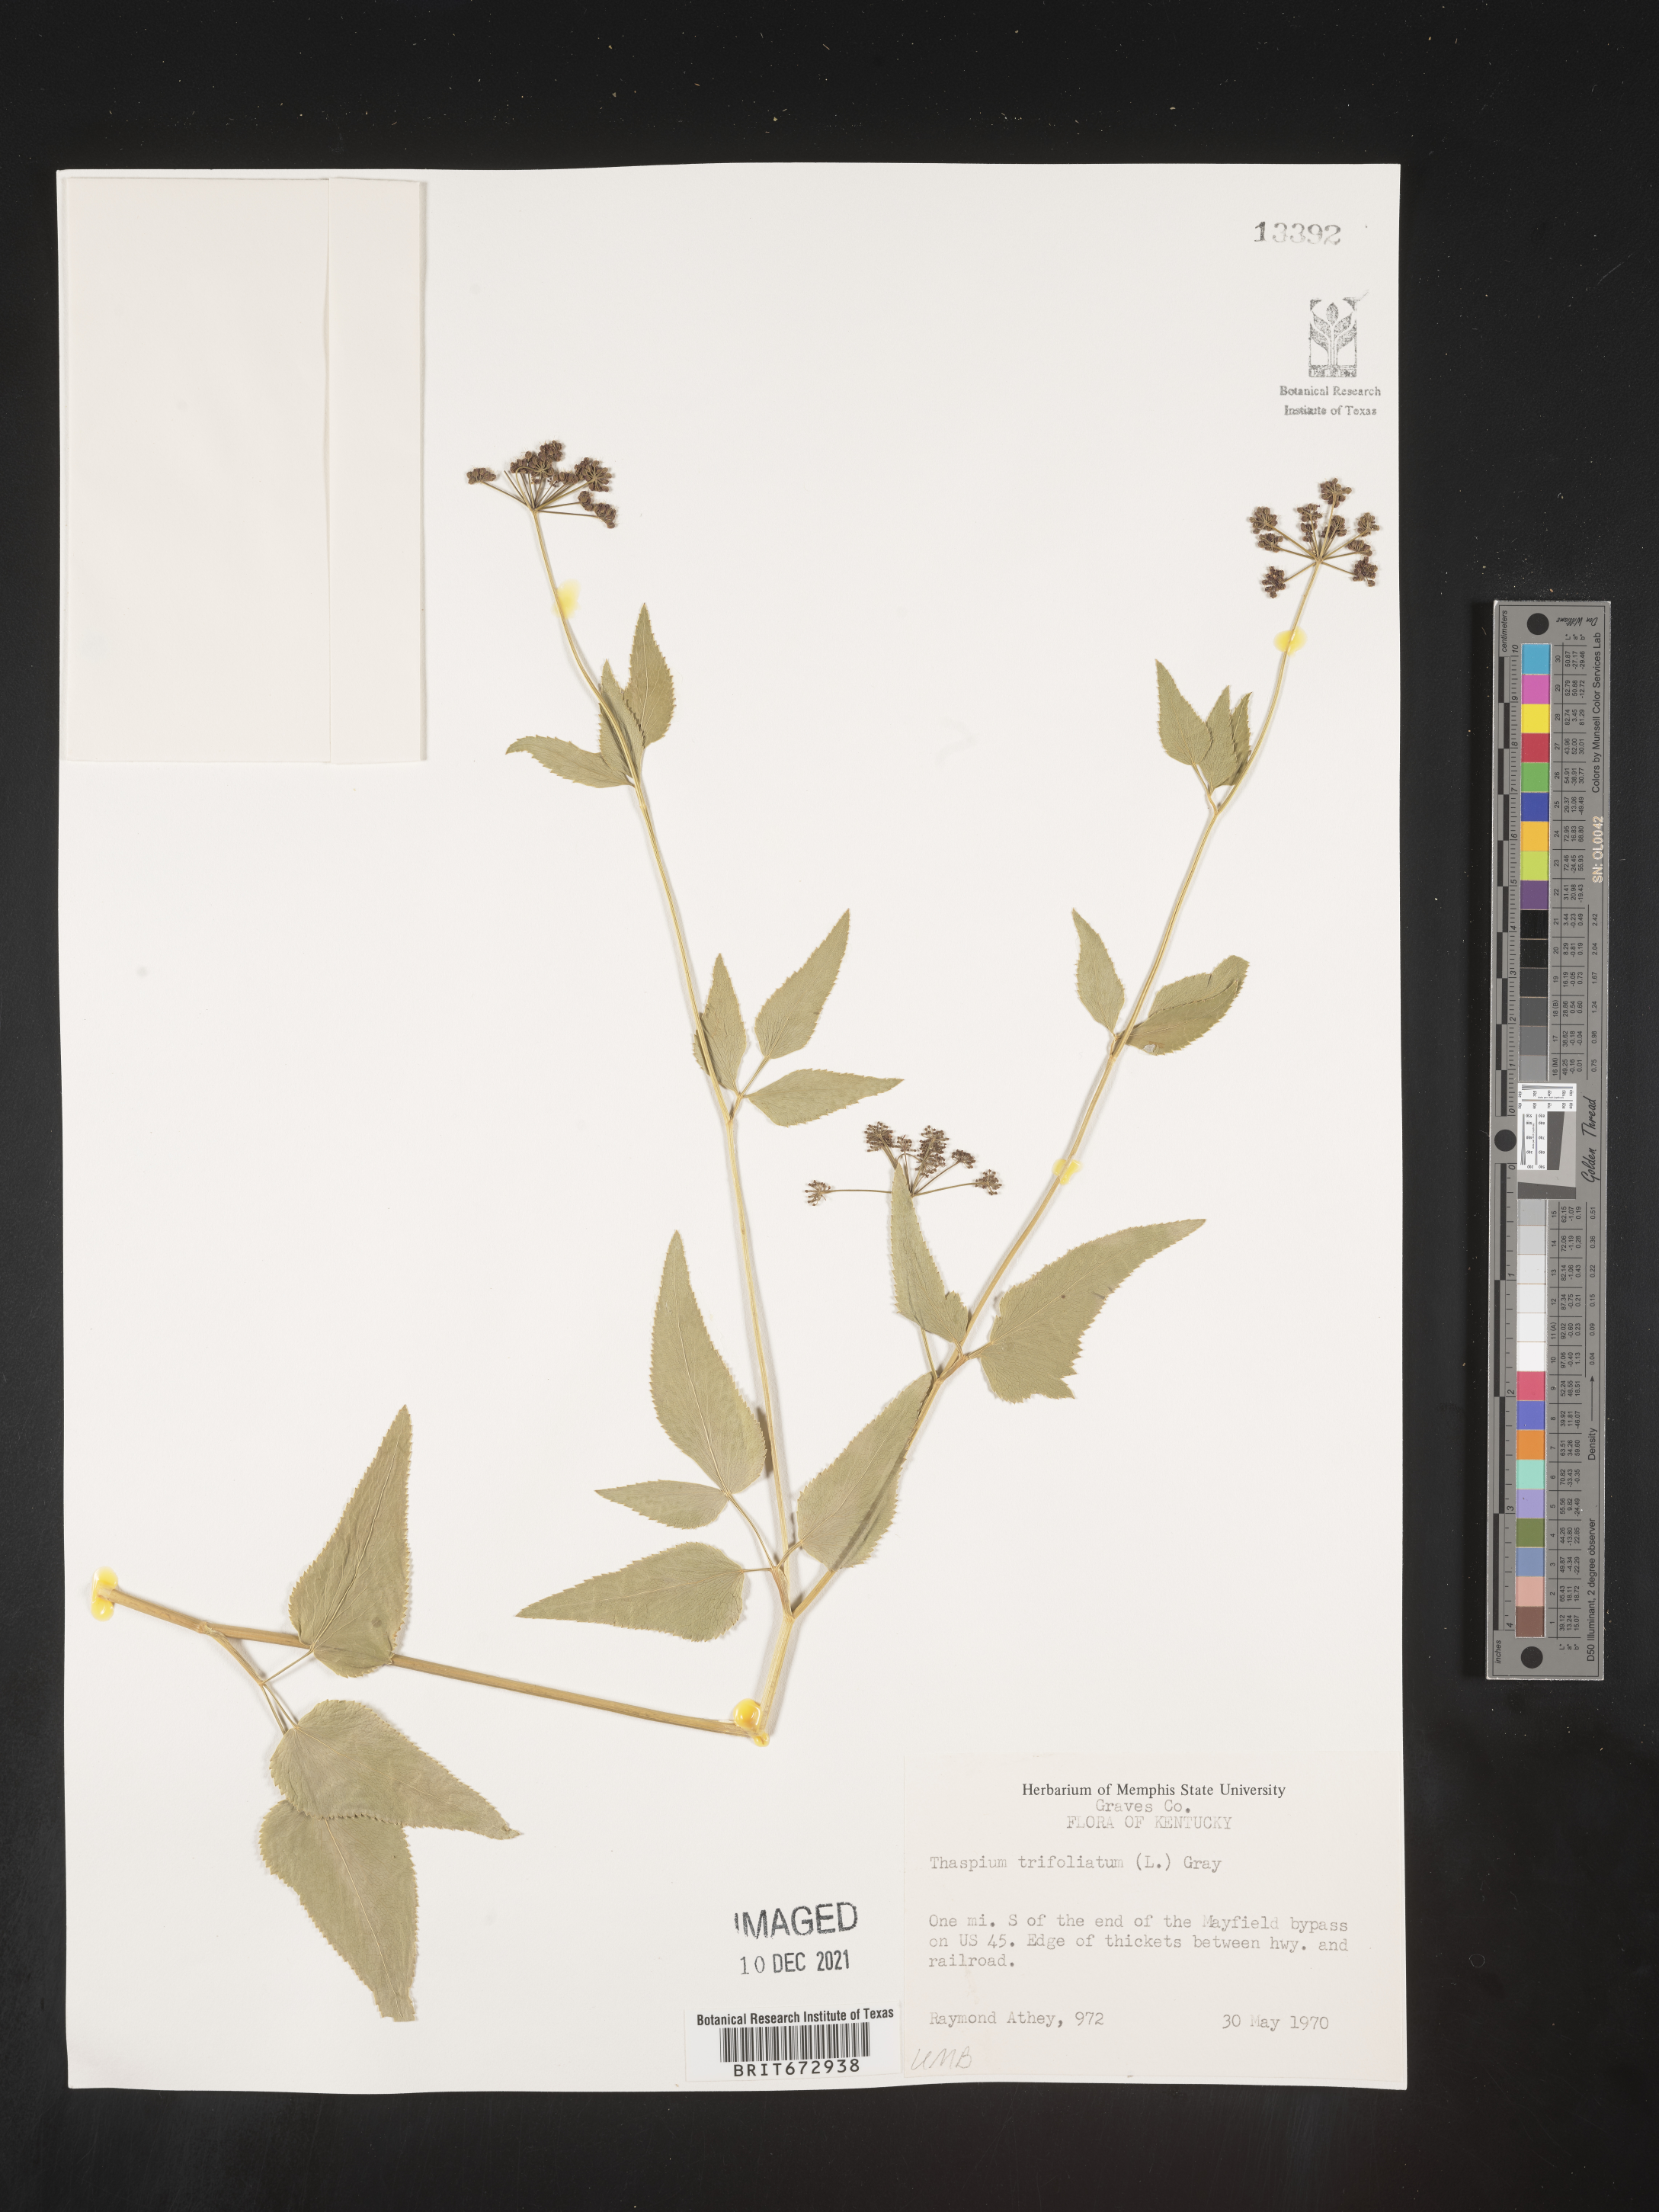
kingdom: Plantae
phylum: Tracheophyta
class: Magnoliopsida
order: Apiales
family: Apiaceae
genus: Thaspium
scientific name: Thaspium
